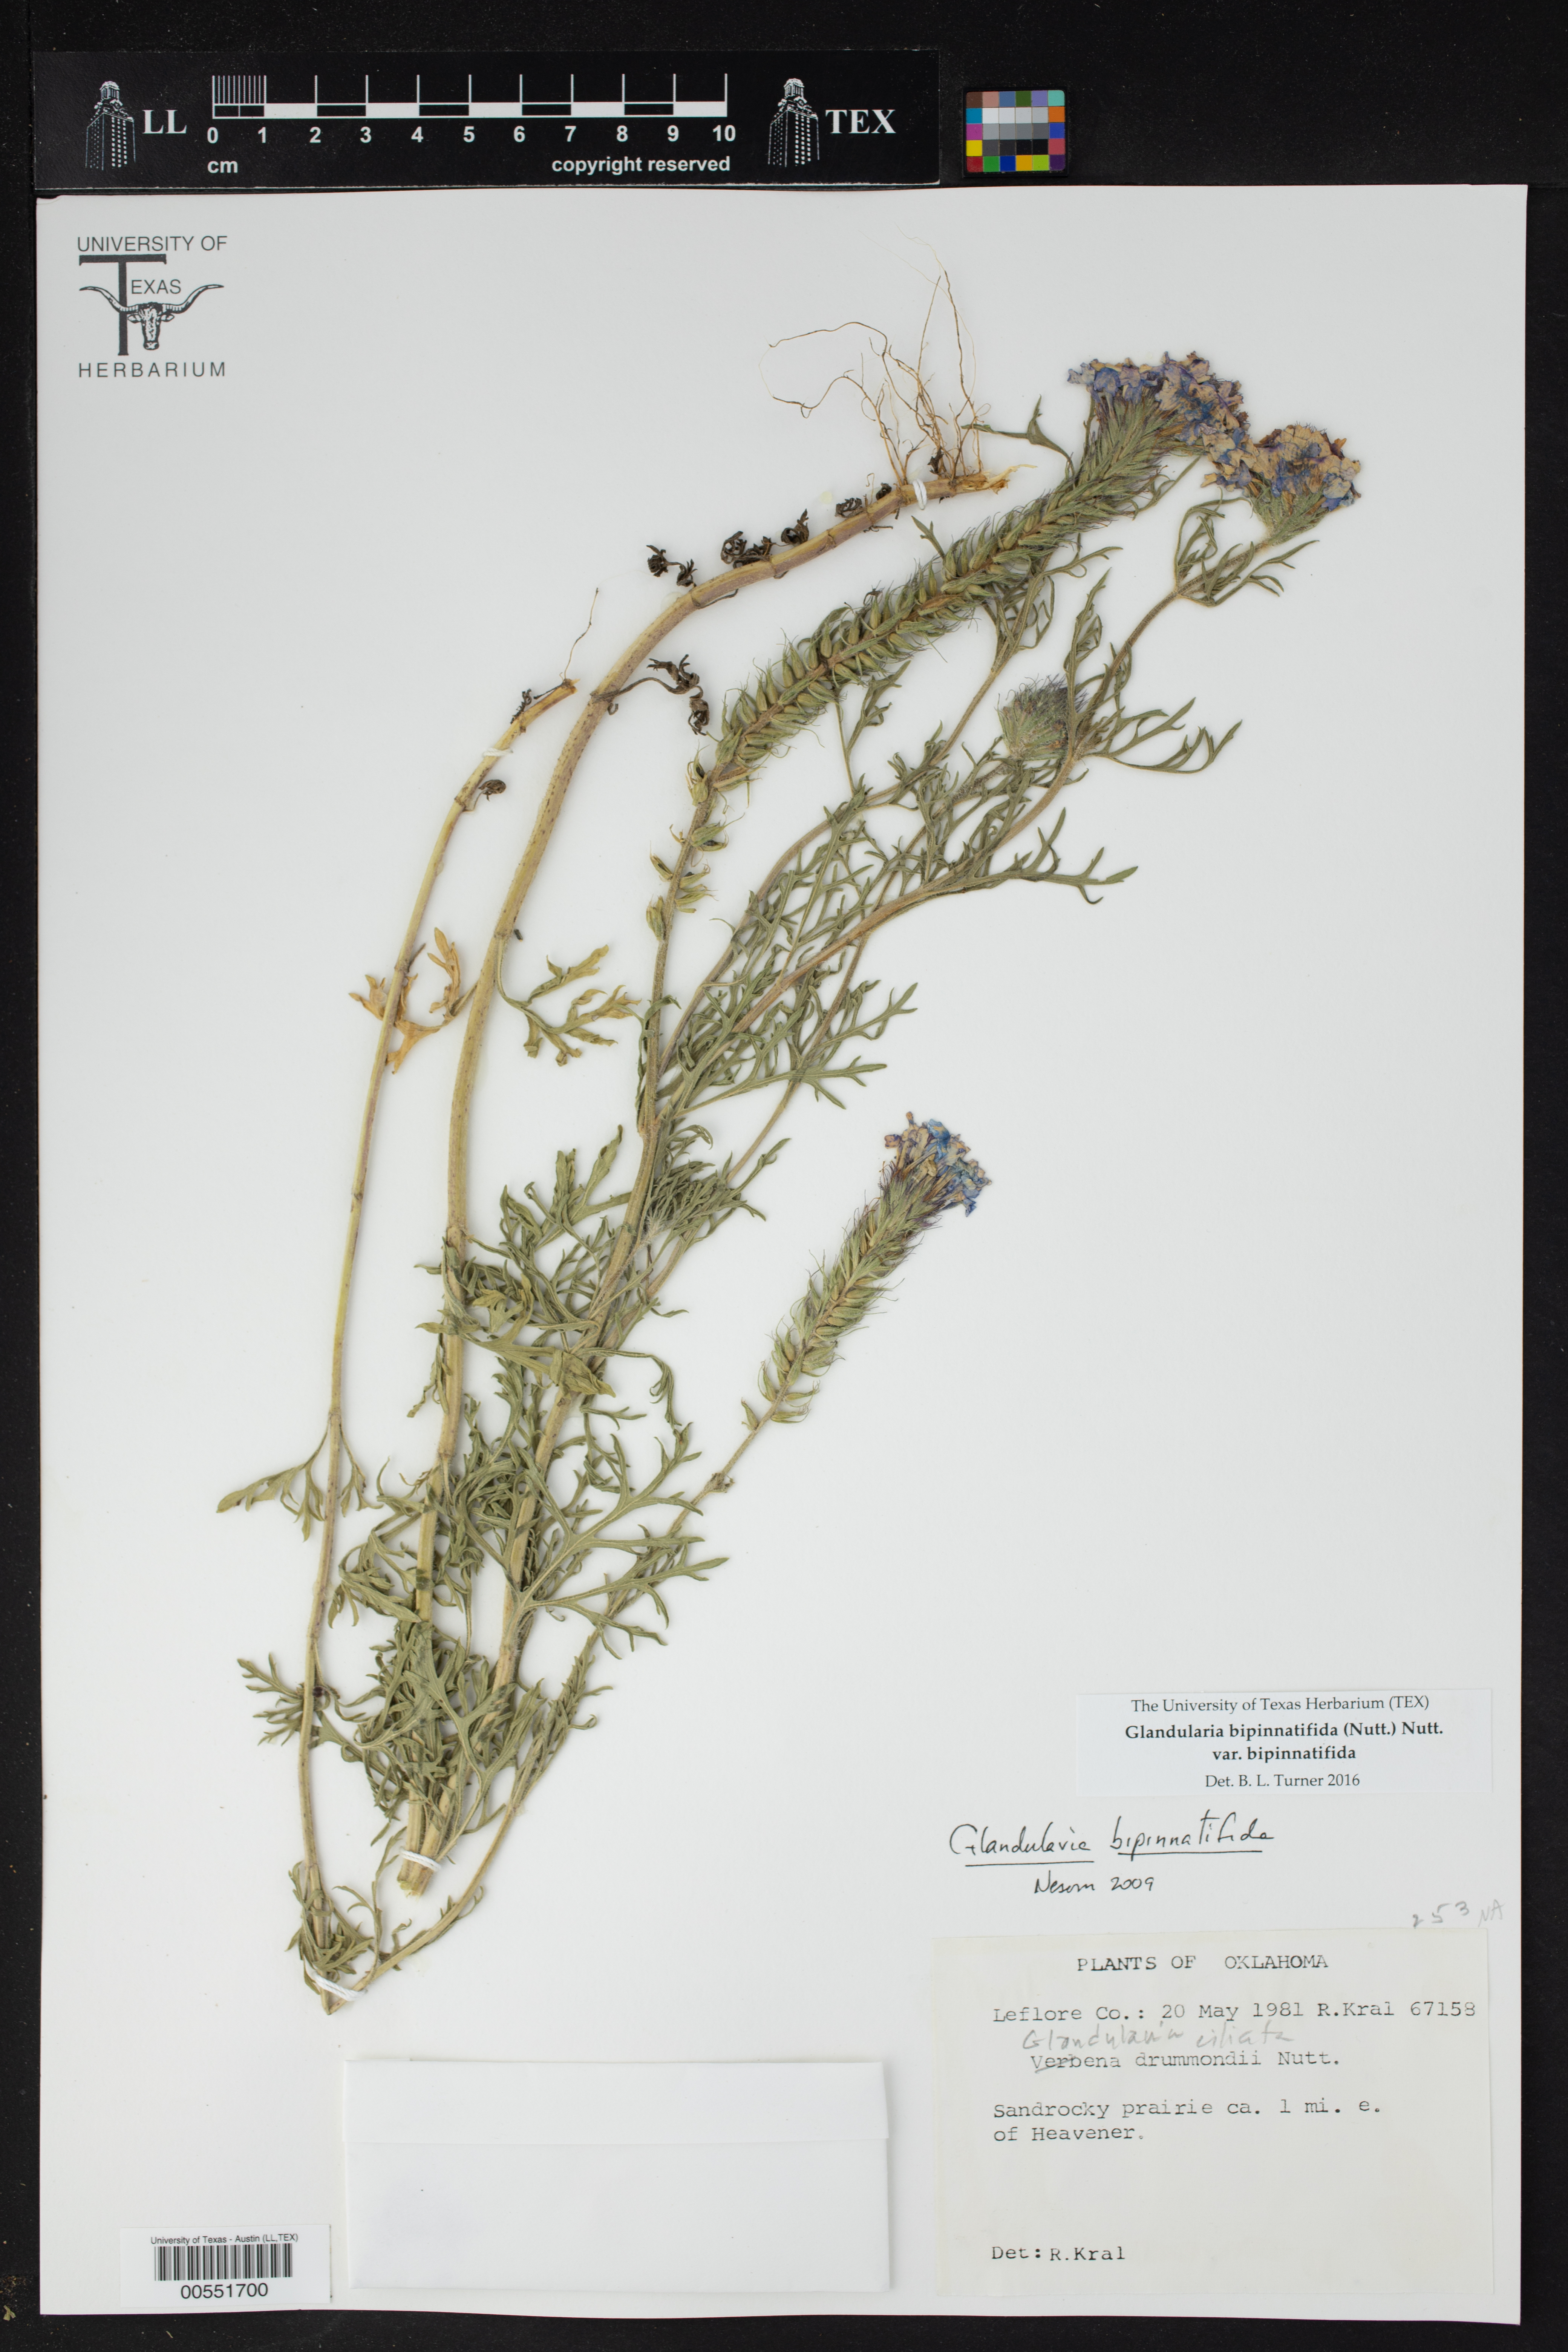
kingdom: Plantae
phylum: Tracheophyta
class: Magnoliopsida
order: Lamiales
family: Verbenaceae
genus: Verbena
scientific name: Verbena bipinnatifida
